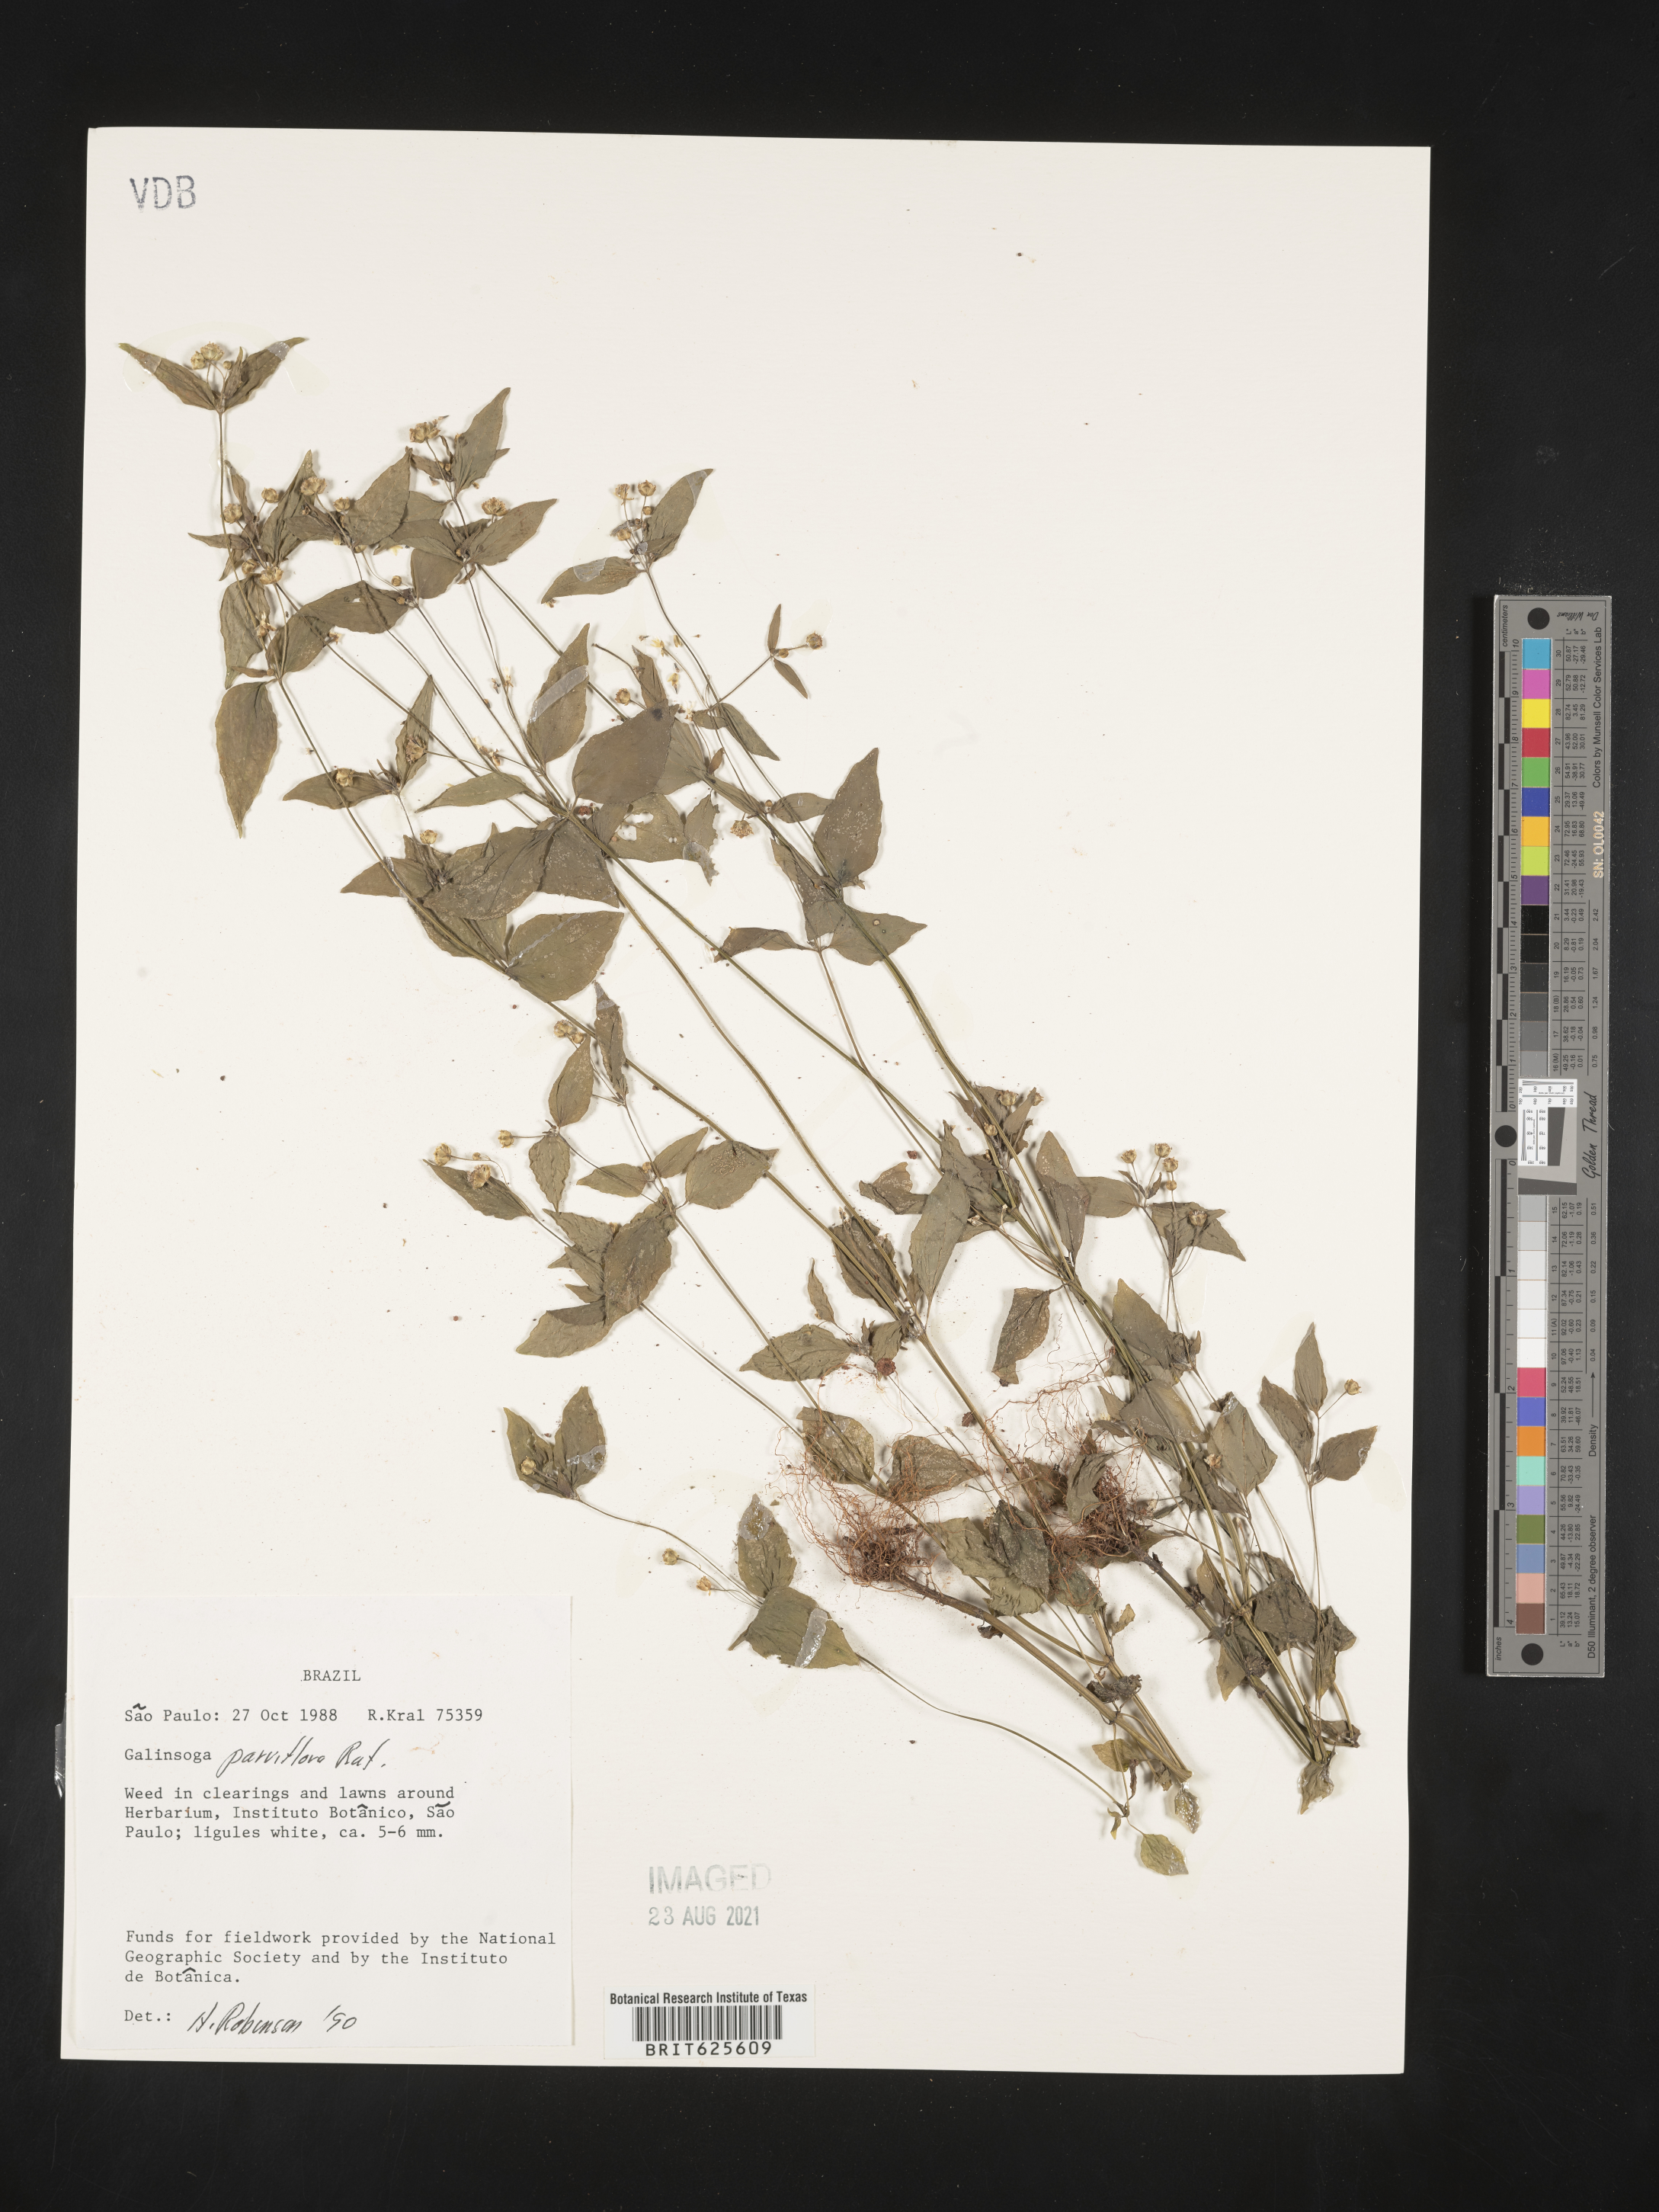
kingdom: Plantae
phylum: Tracheophyta
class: Magnoliopsida
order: Asterales
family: Asteraceae
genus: Galinsoga
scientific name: Galinsoga parviflora
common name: Gallant soldier
